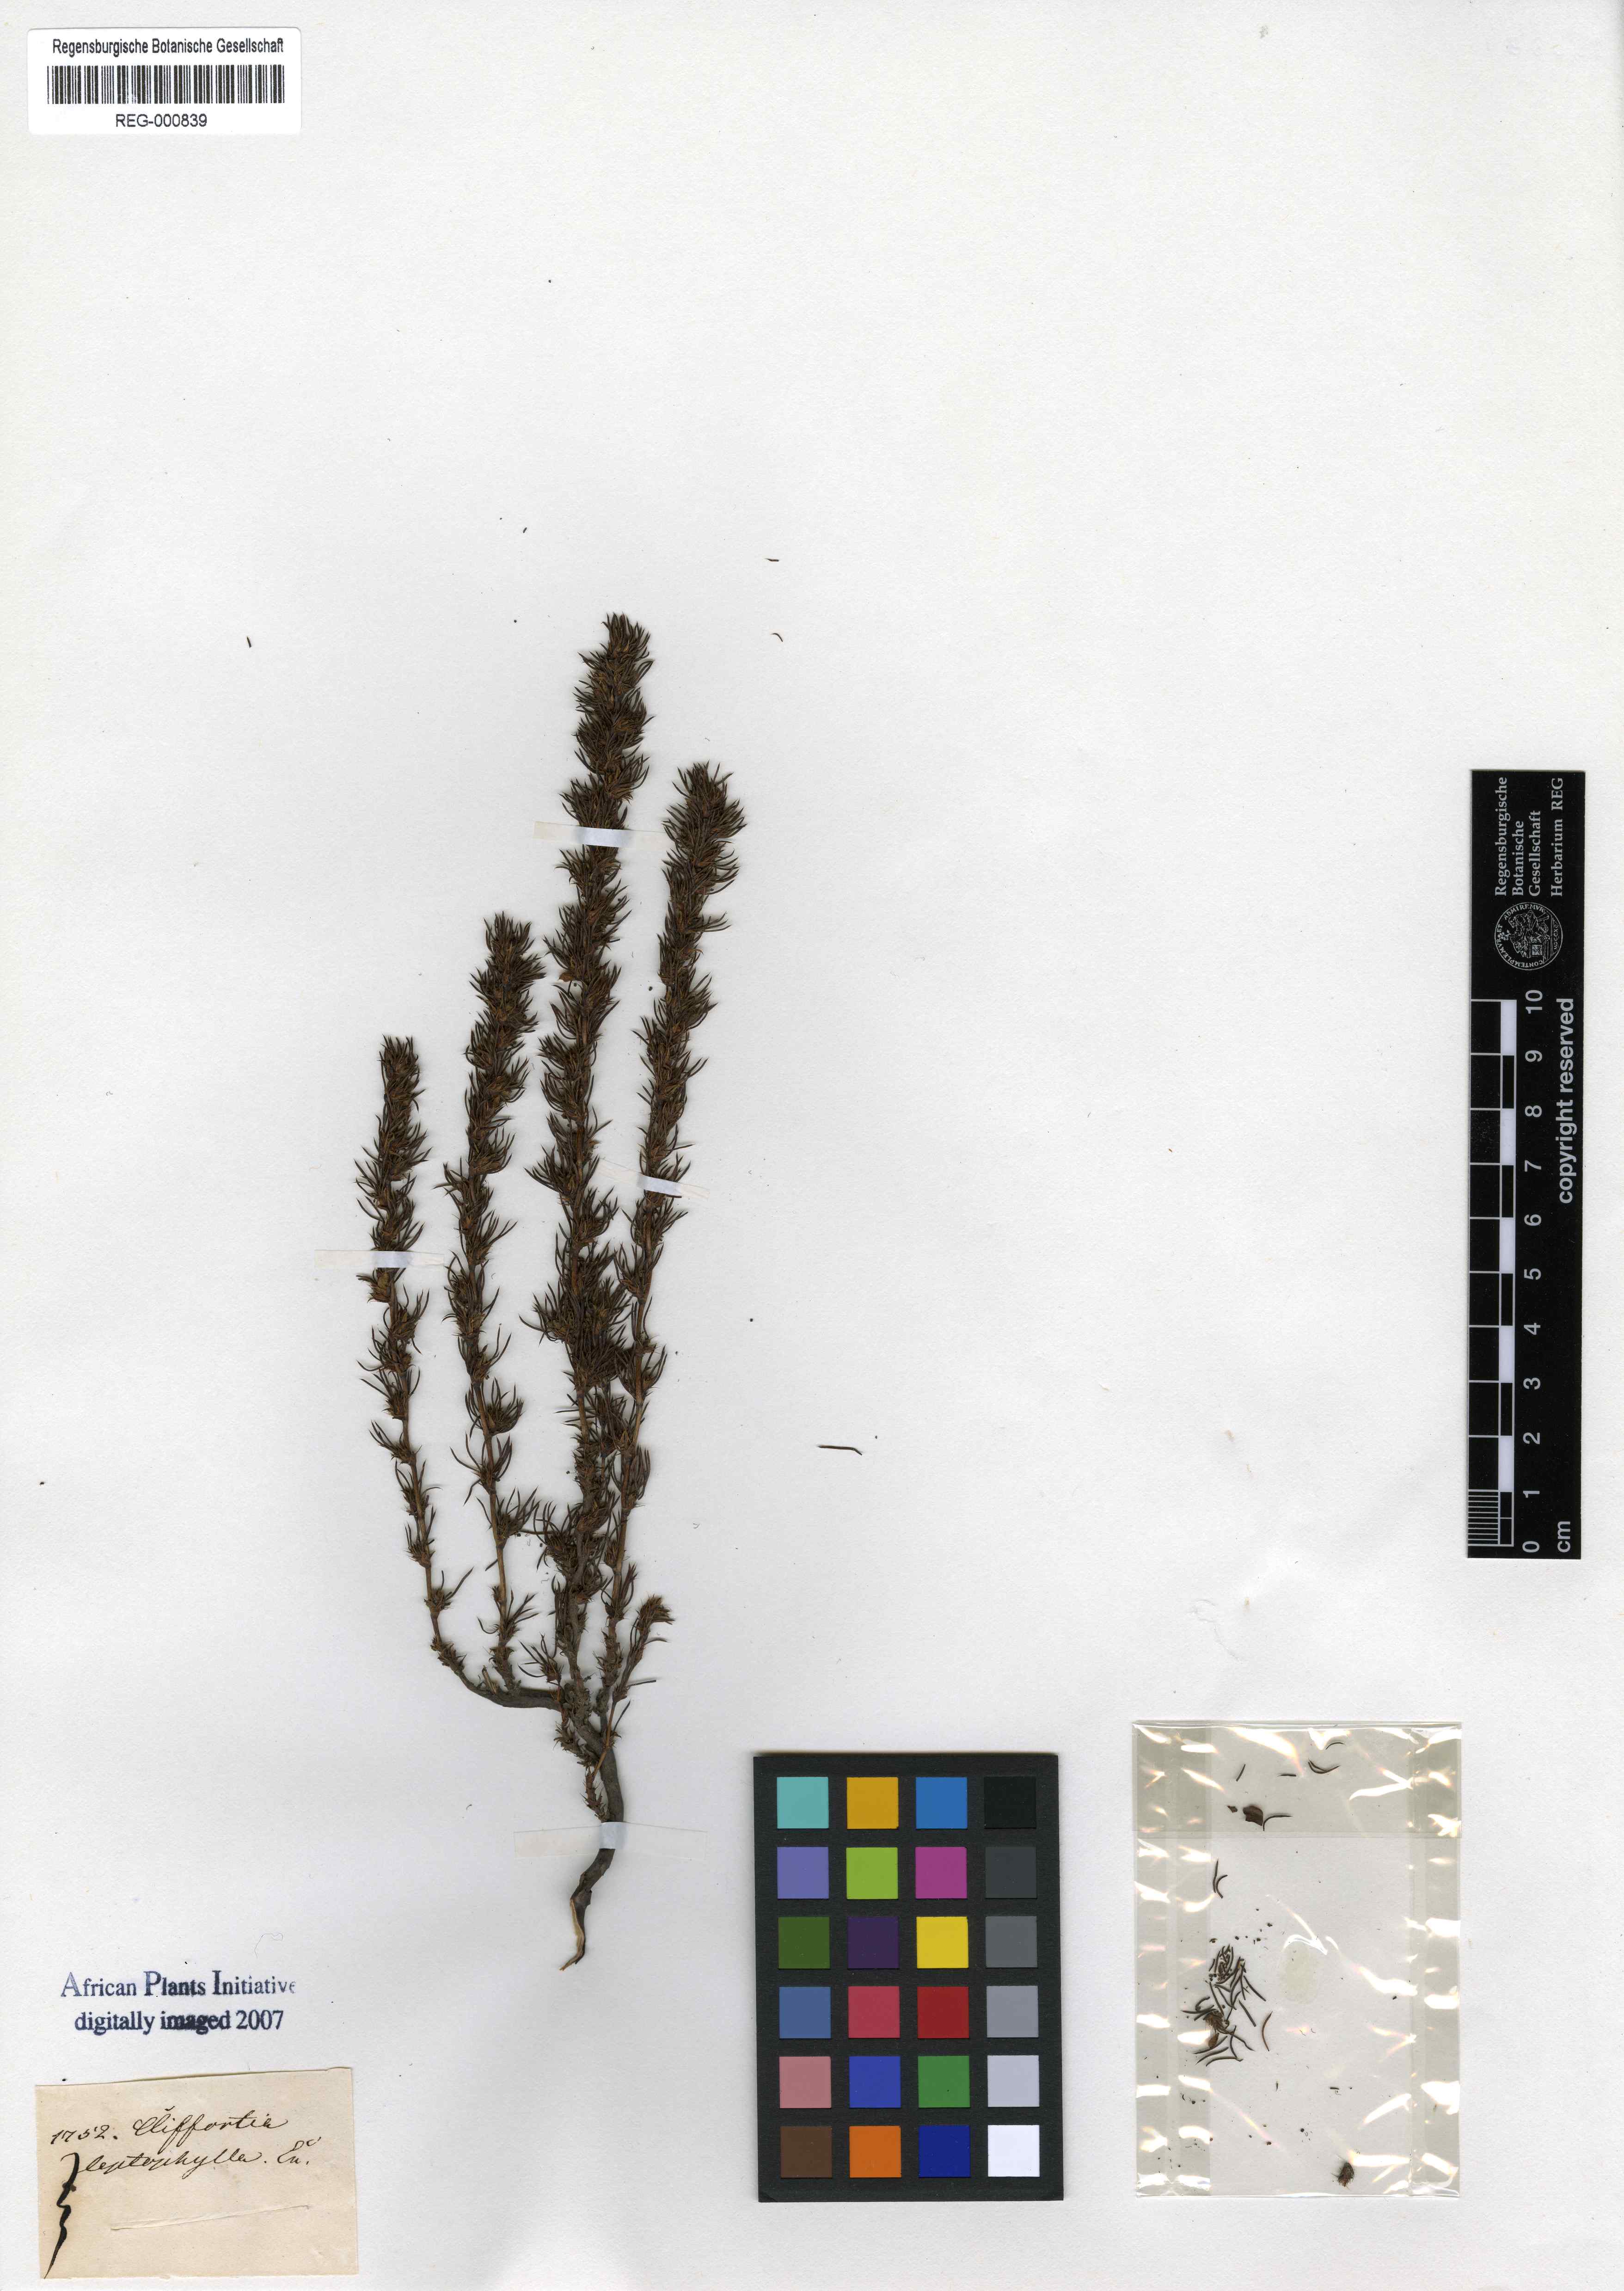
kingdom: Plantae
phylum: Tracheophyta
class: Magnoliopsida
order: Rosales
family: Rosaceae
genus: Cliffortia
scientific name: Cliffortia filifolia
